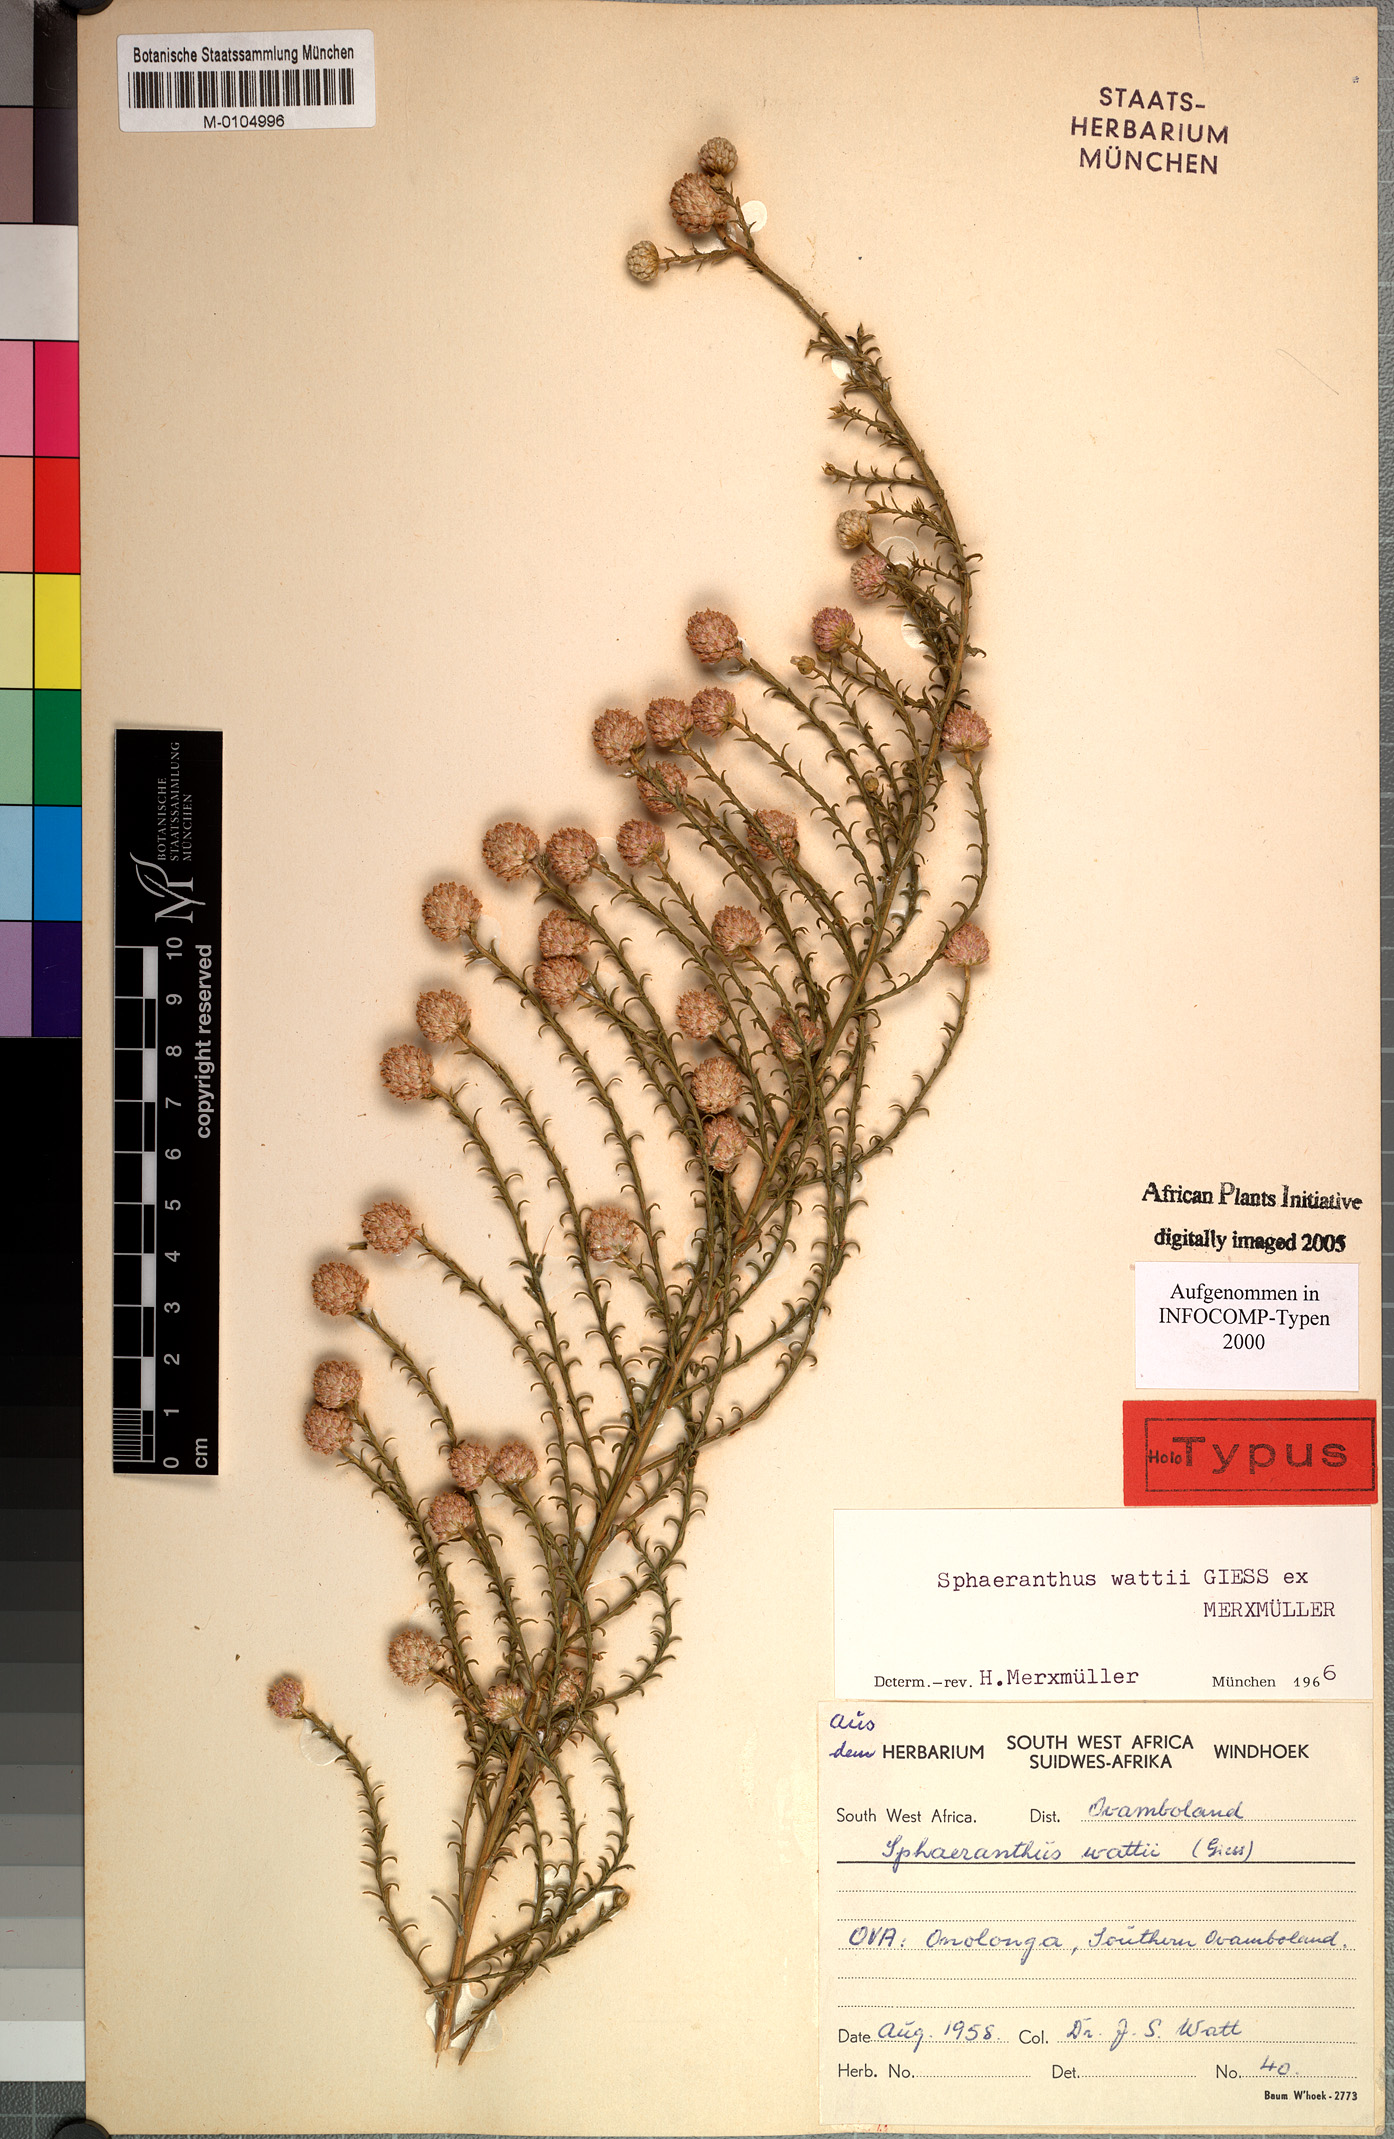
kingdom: Plantae
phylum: Tracheophyta
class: Magnoliopsida
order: Asterales
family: Asteraceae
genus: Sphaeranthus
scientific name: Sphaeranthus wattii
